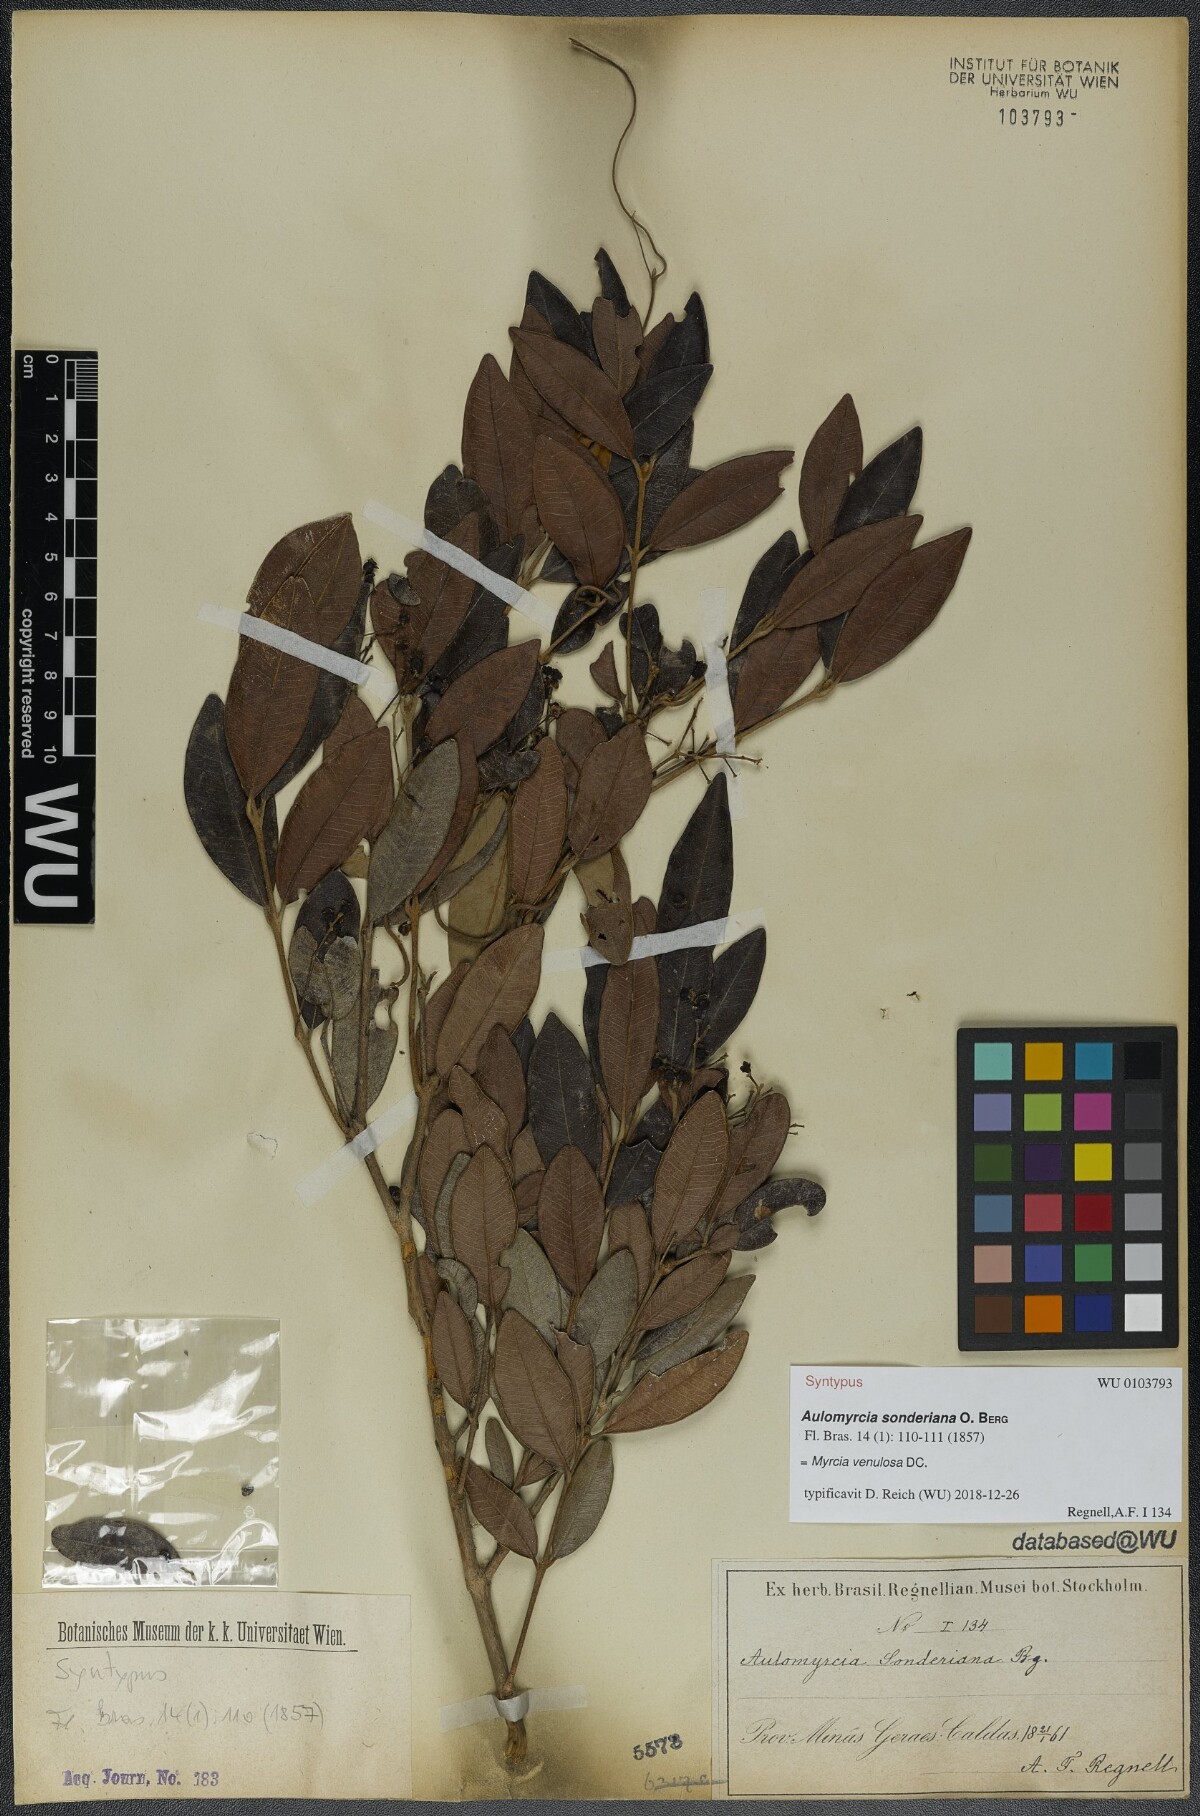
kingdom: Plantae
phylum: Tracheophyta
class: Magnoliopsida
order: Myrtales
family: Myrtaceae
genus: Myrcia
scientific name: Myrcia venulosa
